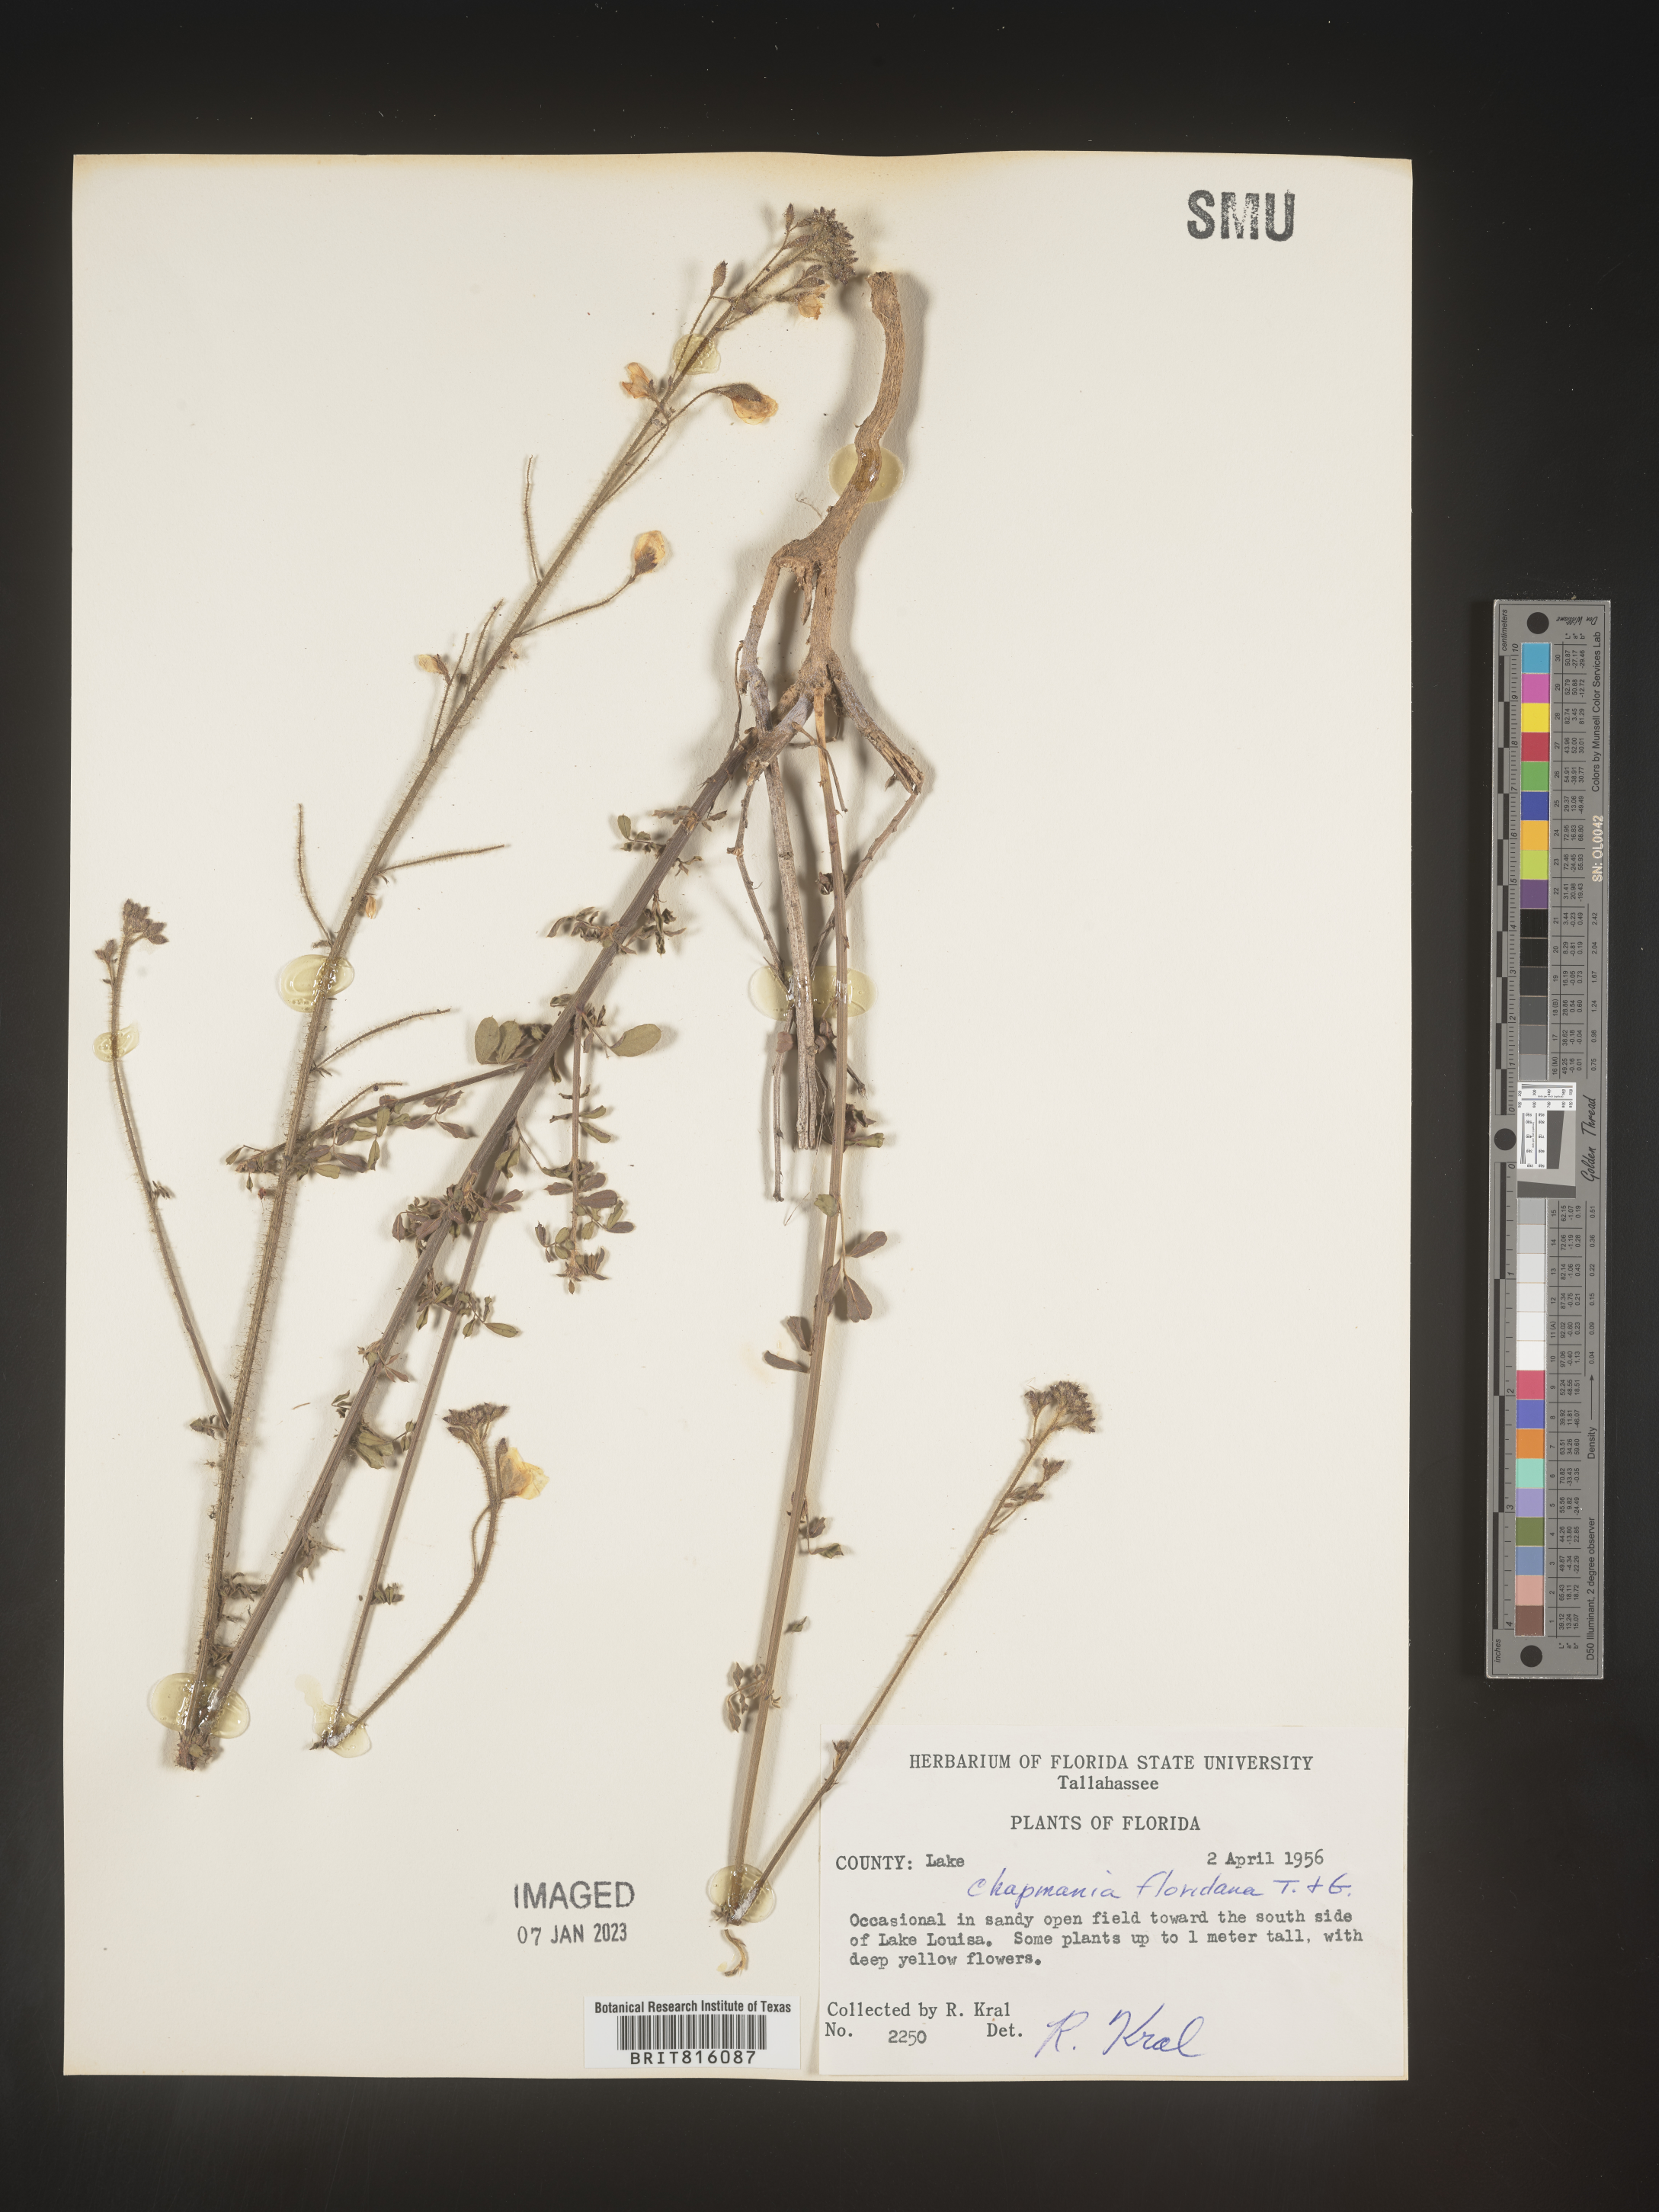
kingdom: Plantae
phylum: Tracheophyta
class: Magnoliopsida
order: Fabales
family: Fabaceae
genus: Chapmannia
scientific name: Chapmannia
